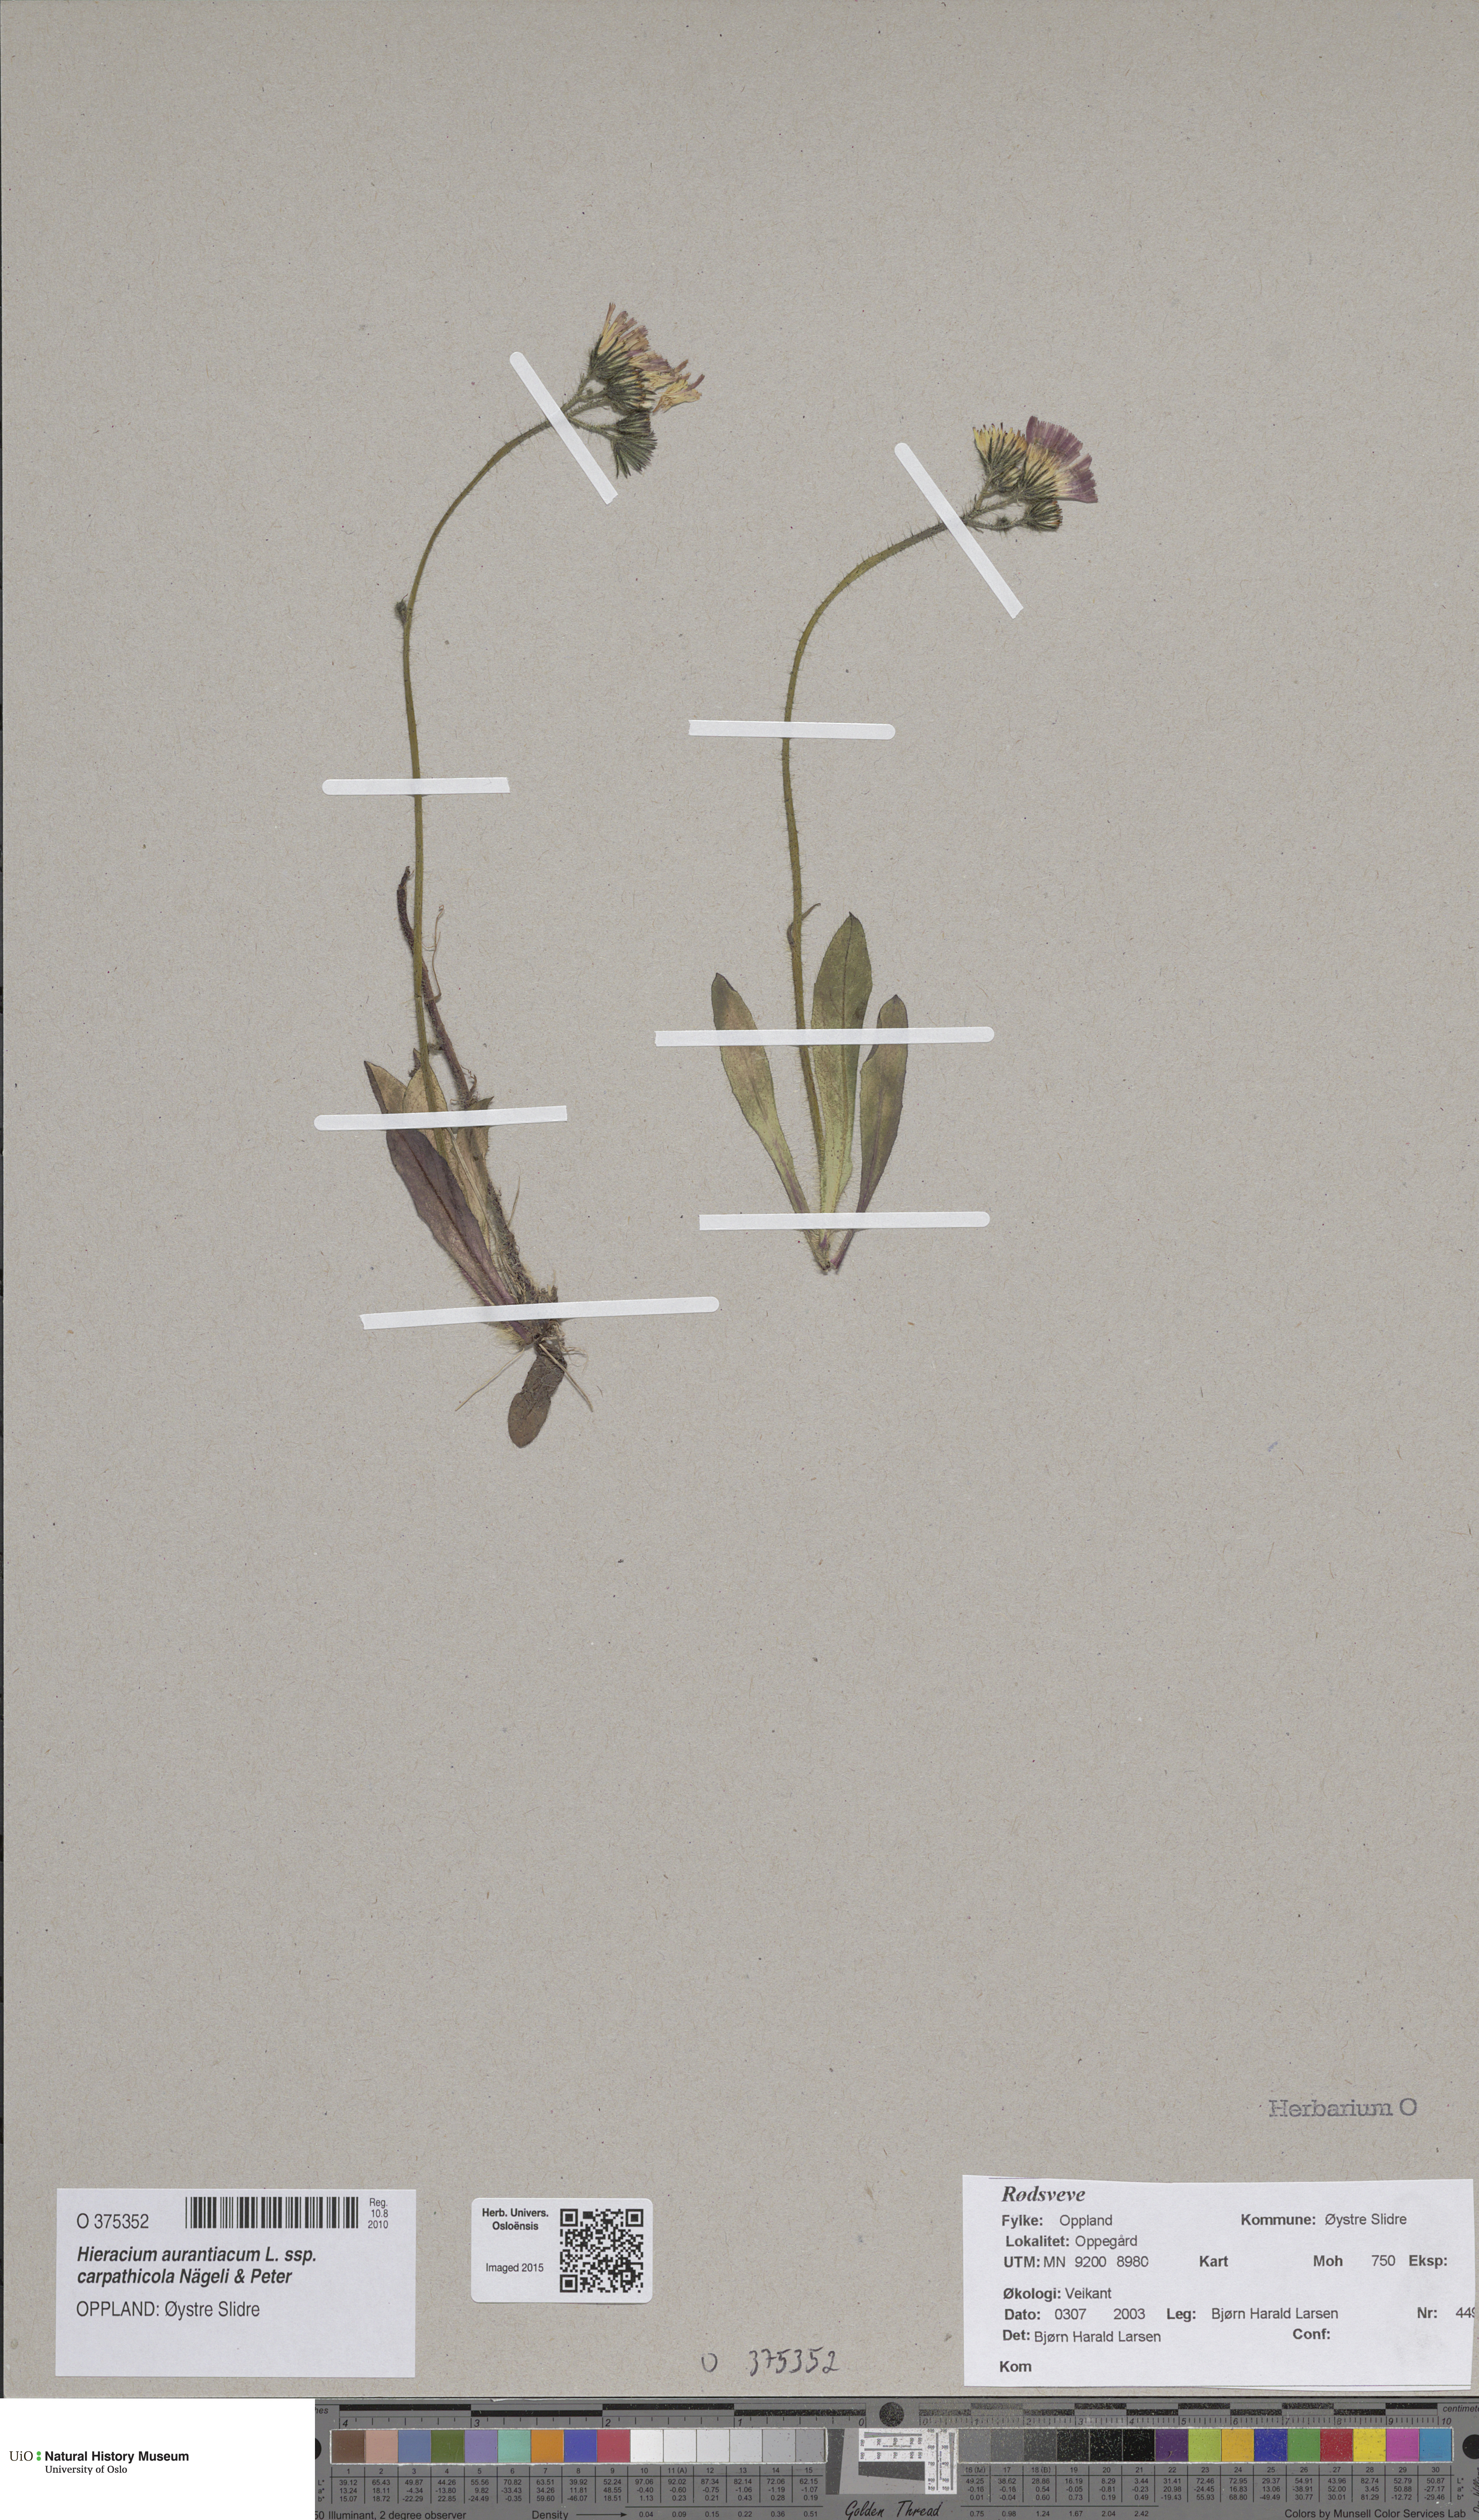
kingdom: Plantae
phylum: Tracheophyta
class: Magnoliopsida
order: Asterales
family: Asteraceae
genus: Pilosella
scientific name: Pilosella aurantiaca
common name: Fox-and-cubs
